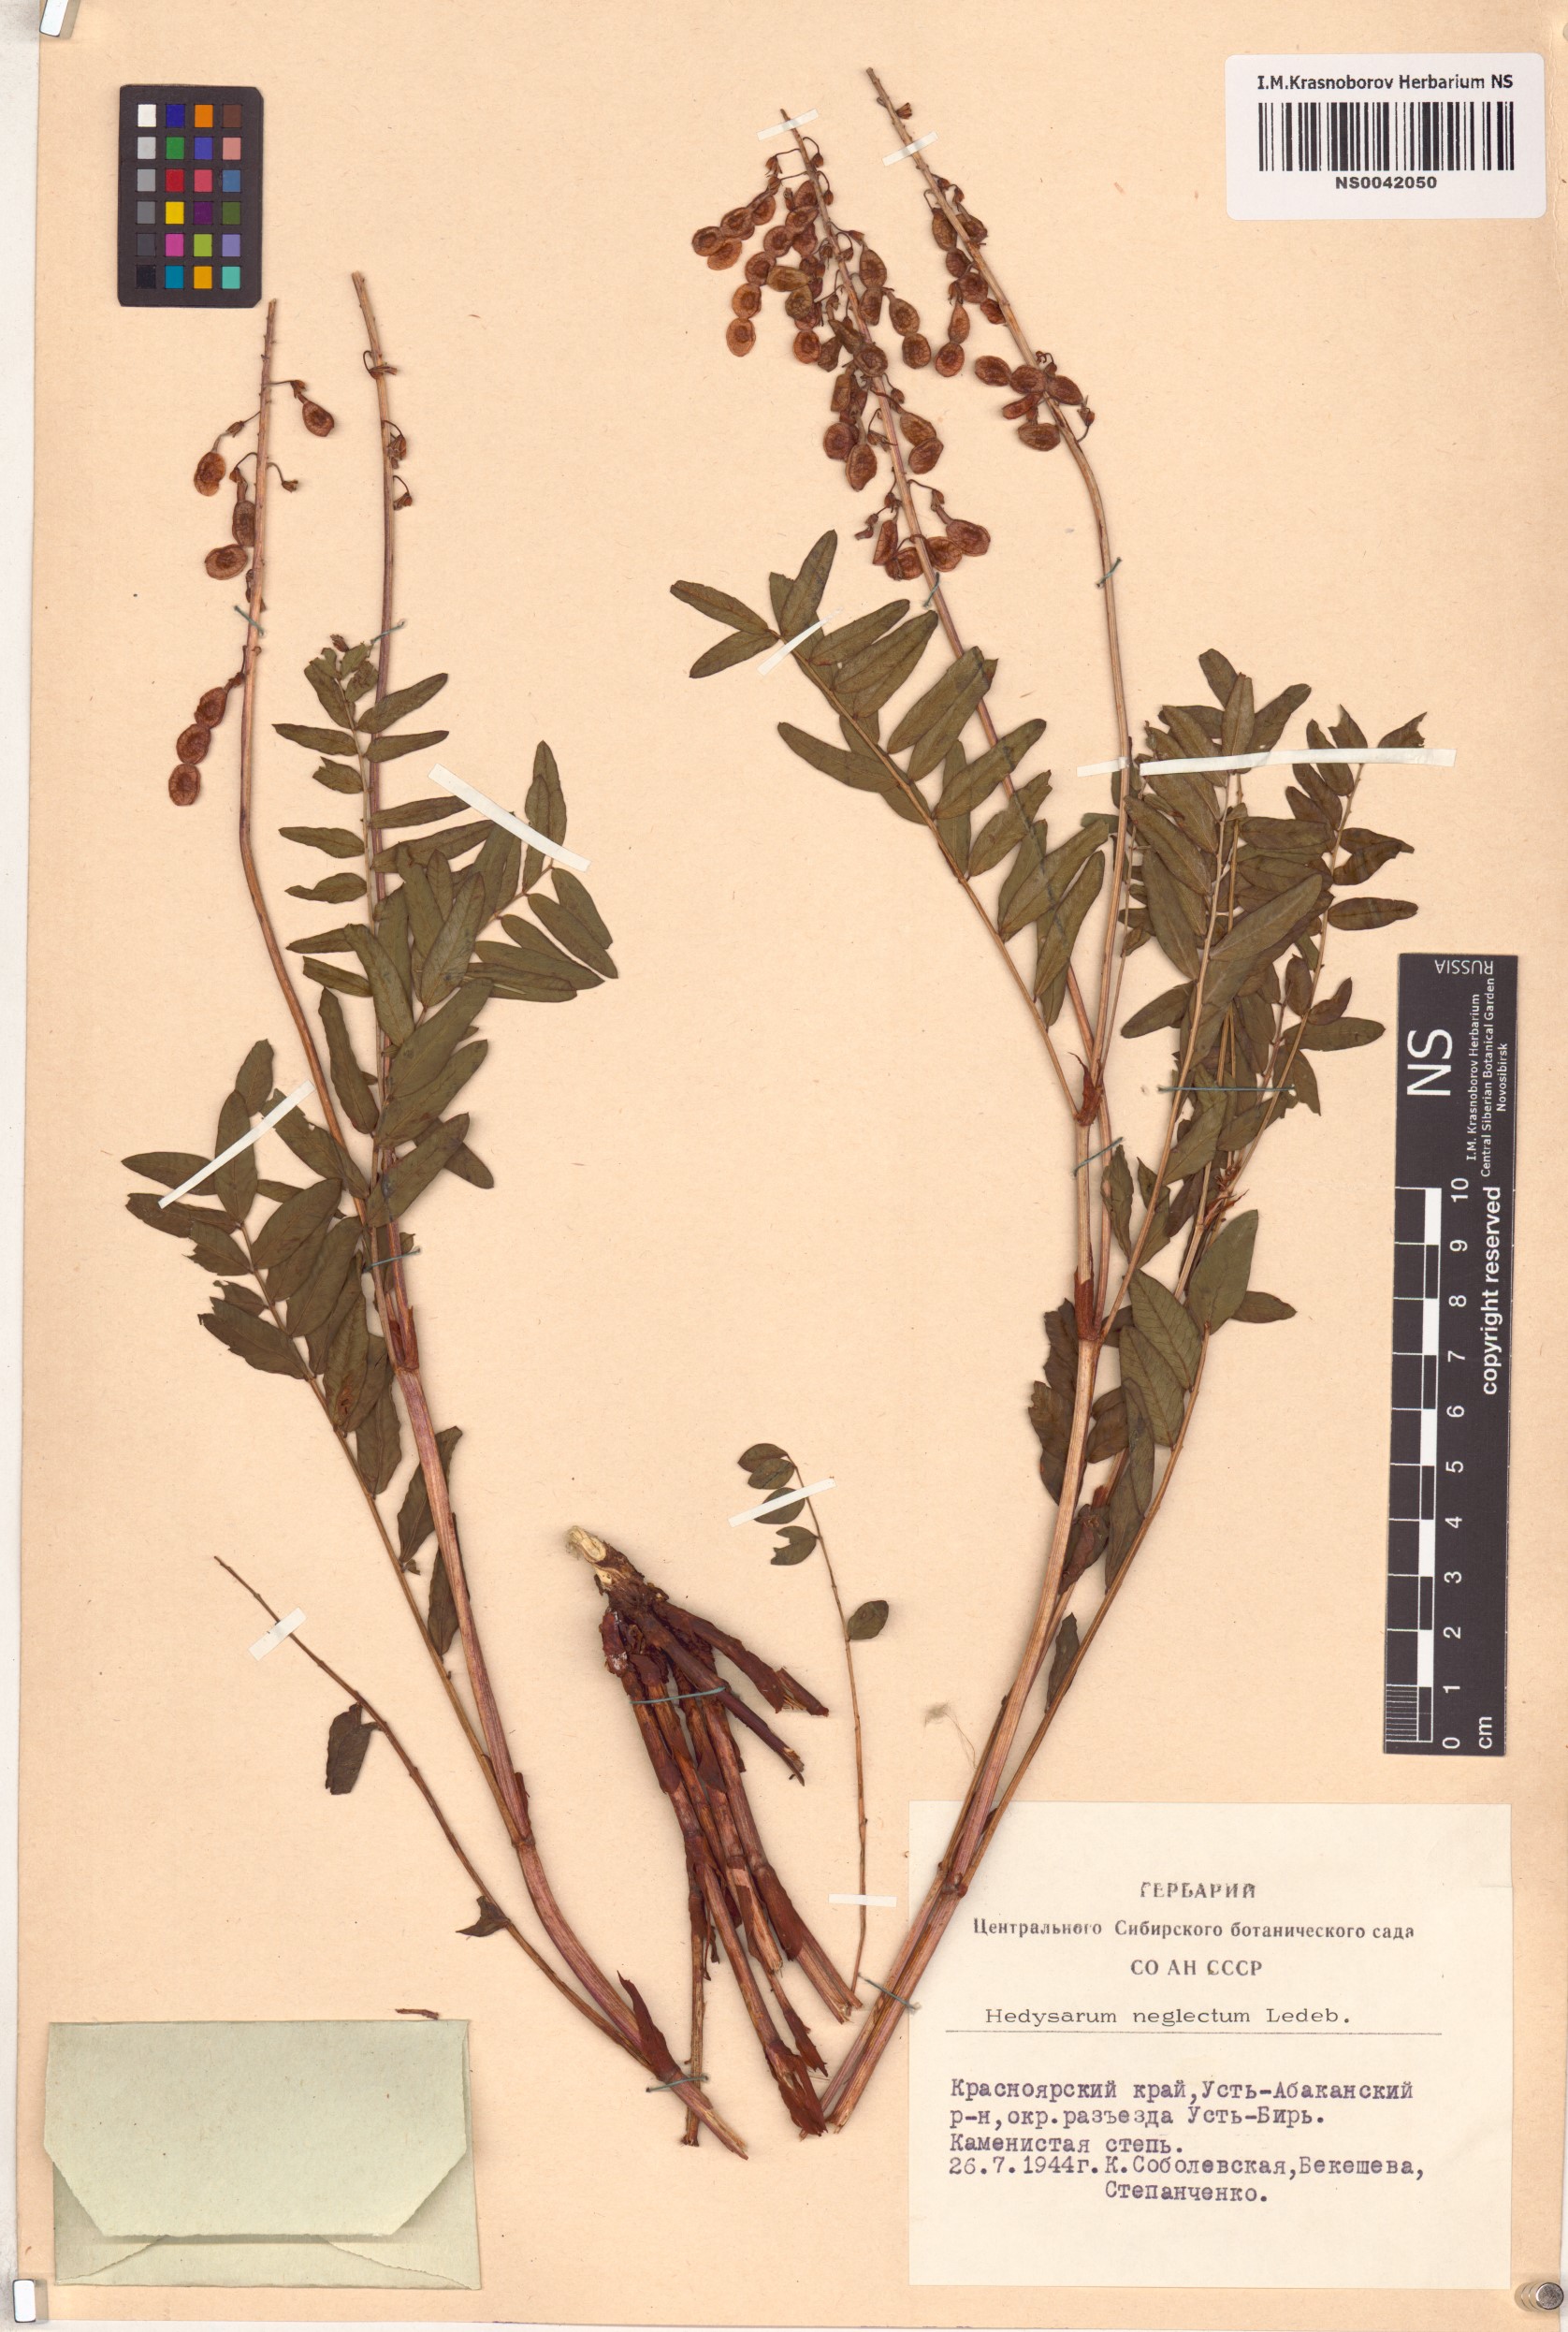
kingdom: Plantae
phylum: Tracheophyta
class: Magnoliopsida
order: Fabales
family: Fabaceae
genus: Hedysarum
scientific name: Hedysarum neglectum
